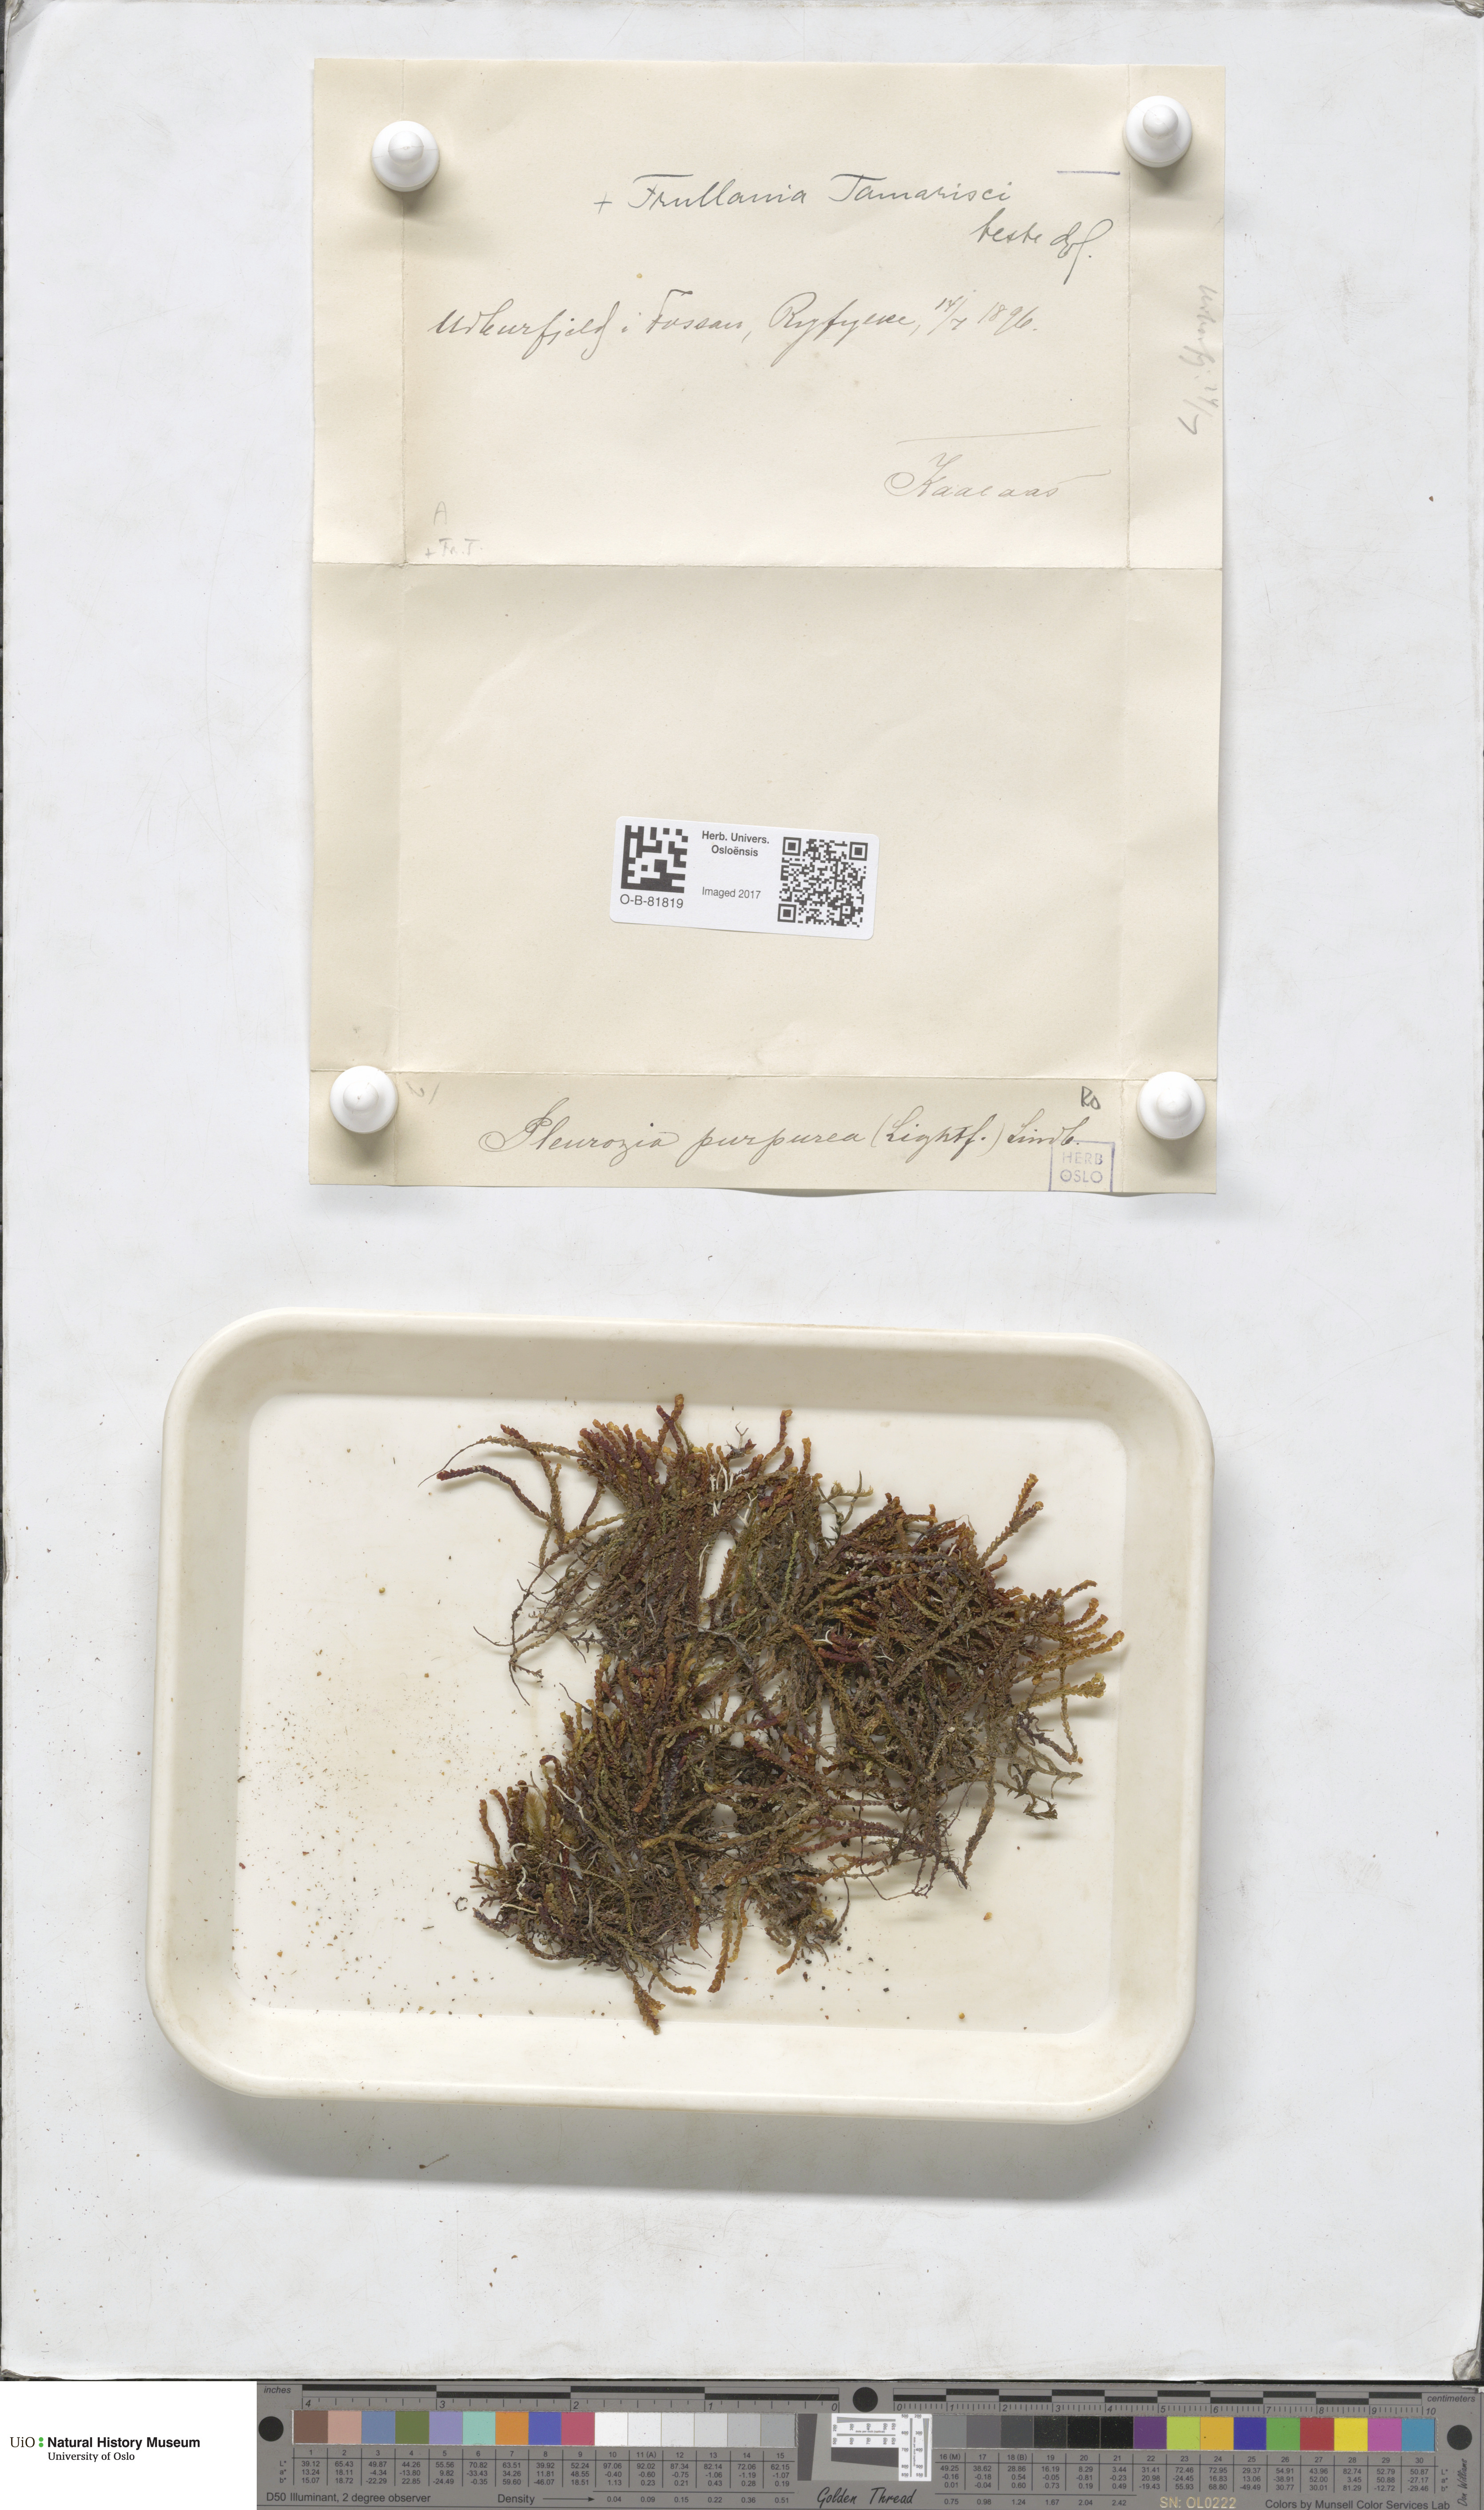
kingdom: Plantae
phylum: Marchantiophyta
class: Jungermanniopsida
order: Pleuroziales
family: Pleuroziaceae
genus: Pleurozia
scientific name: Pleurozia purpurea
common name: Purple spoonwort
